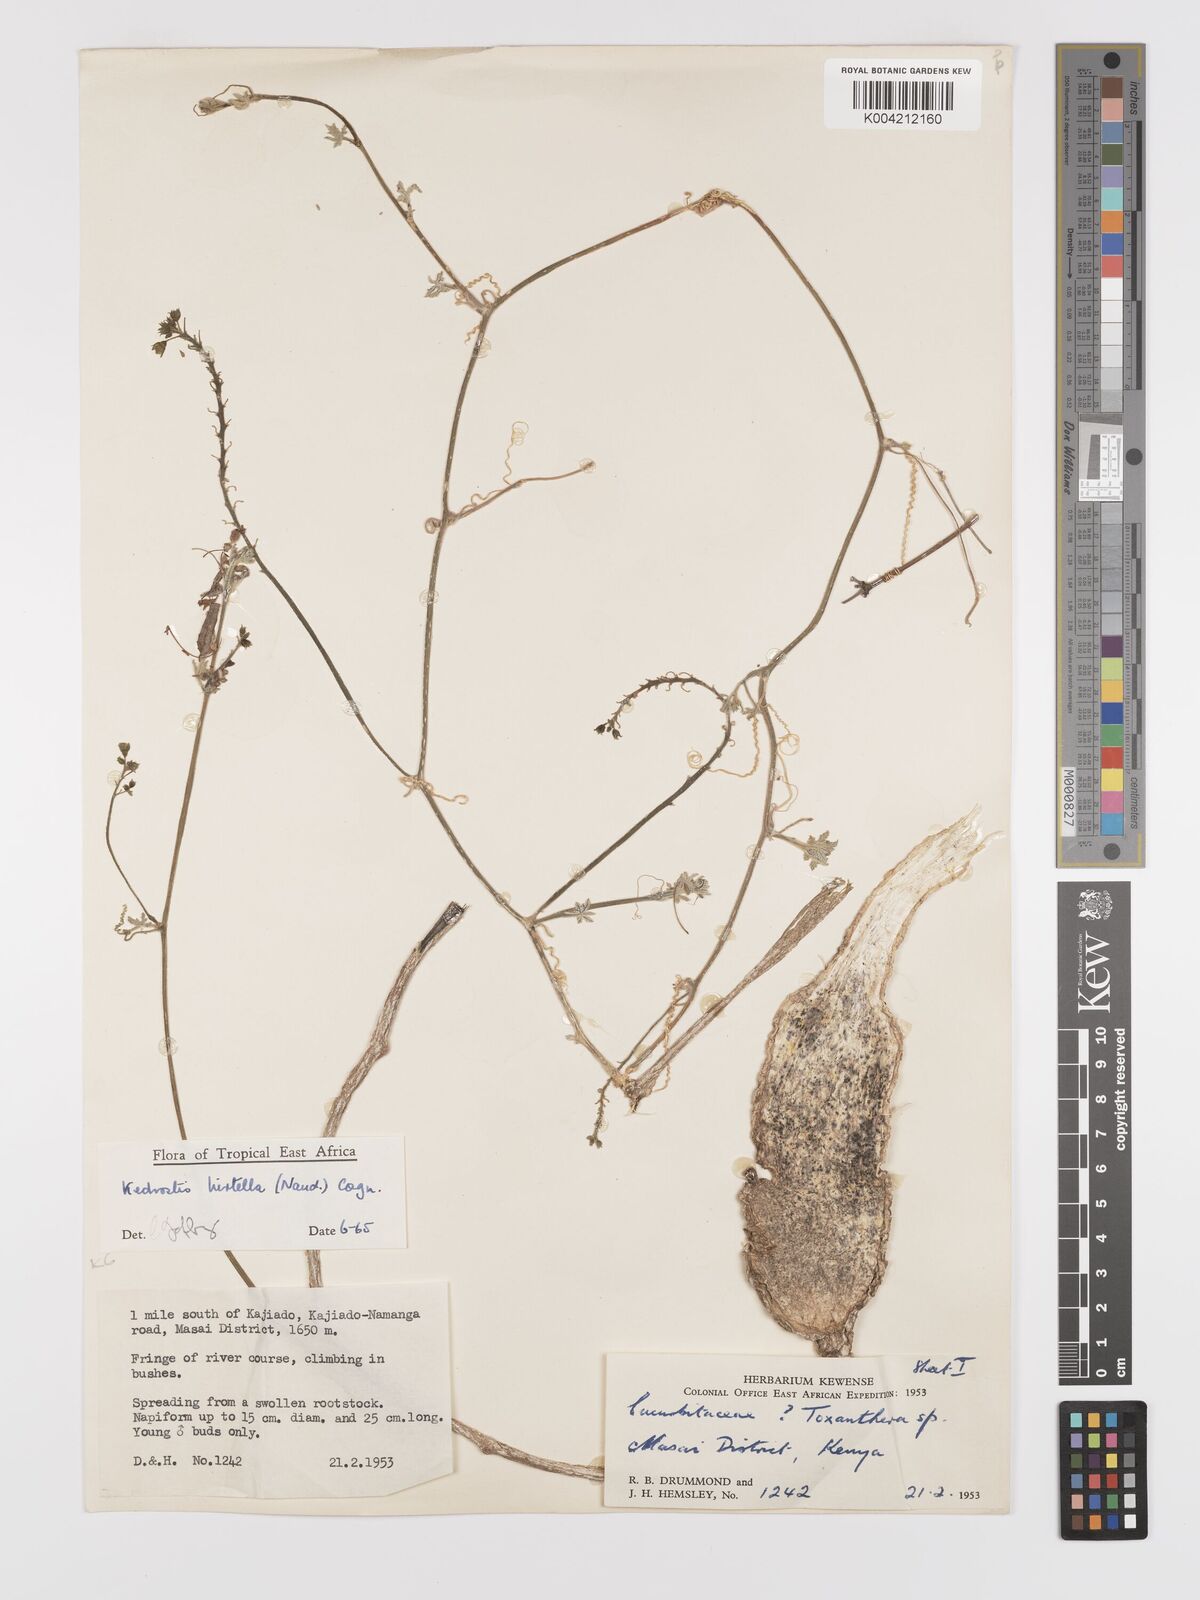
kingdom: Plantae
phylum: Tracheophyta
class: Magnoliopsida
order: Cucurbitales
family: Cucurbitaceae
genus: Kedrostis
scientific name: Kedrostis leloja
